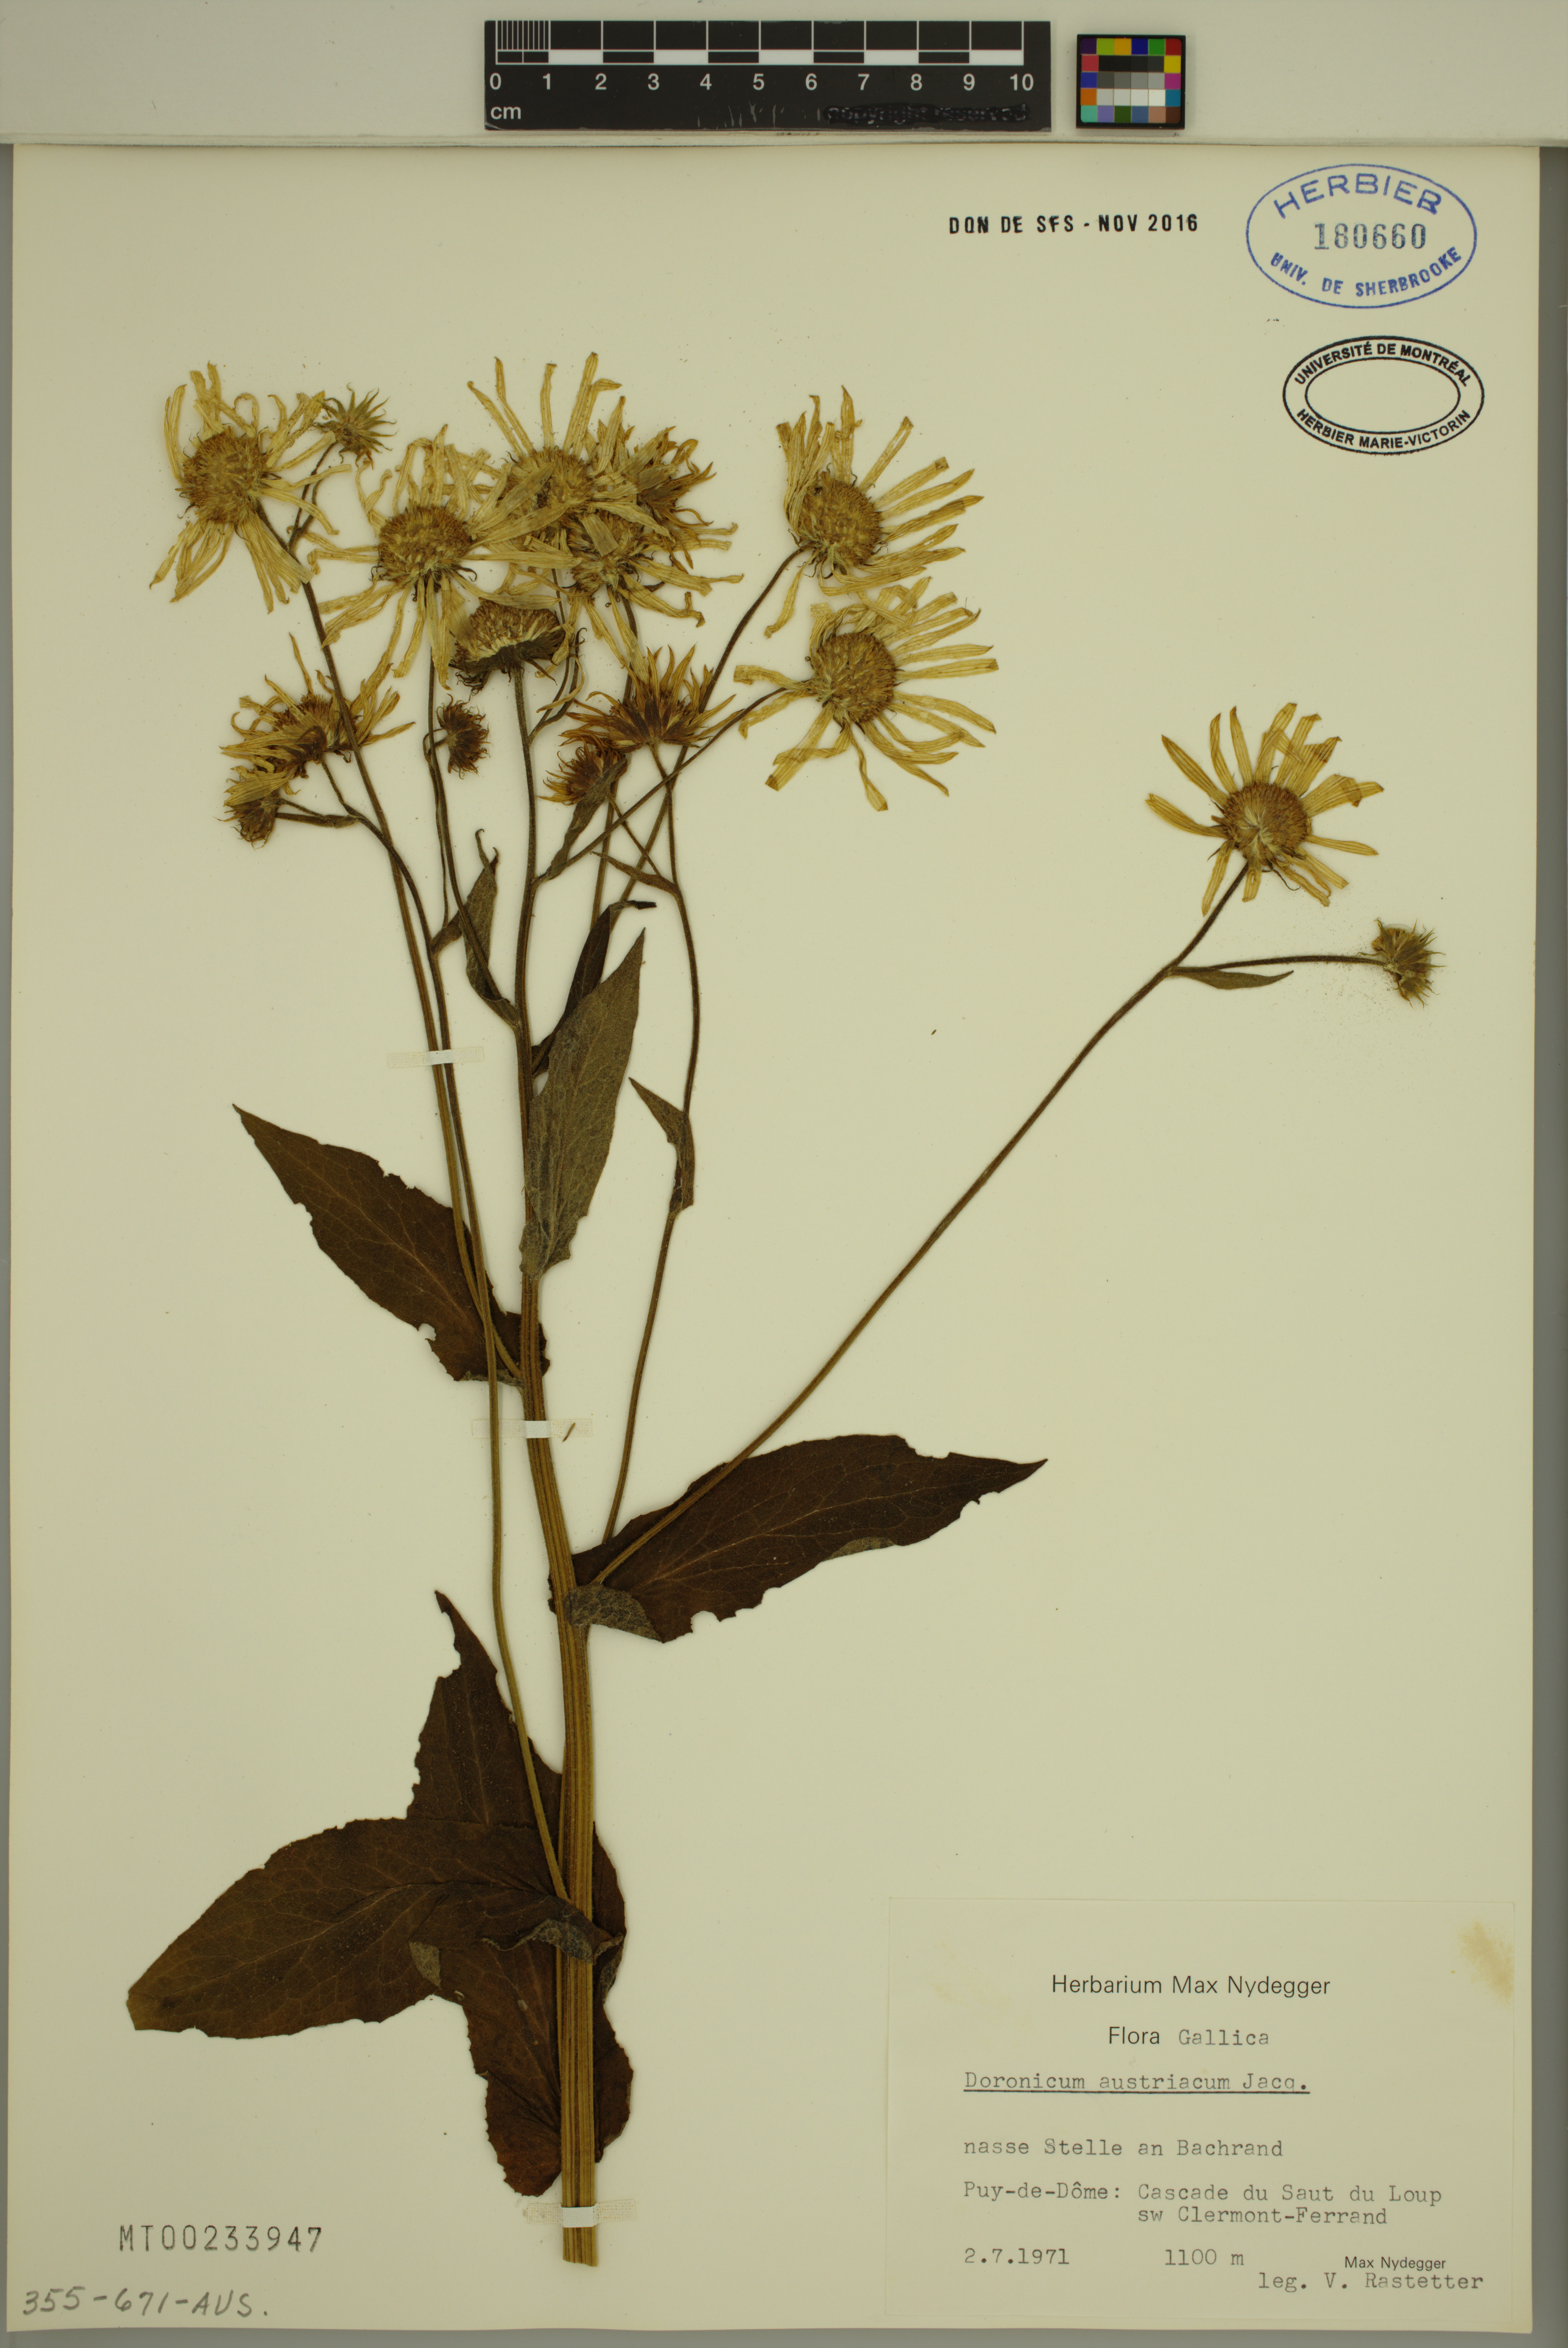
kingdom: Plantae
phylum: Tracheophyta
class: Magnoliopsida
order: Asterales
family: Asteraceae
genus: Doronicum
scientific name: Doronicum austriacum
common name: Austrian leopard's-bane
